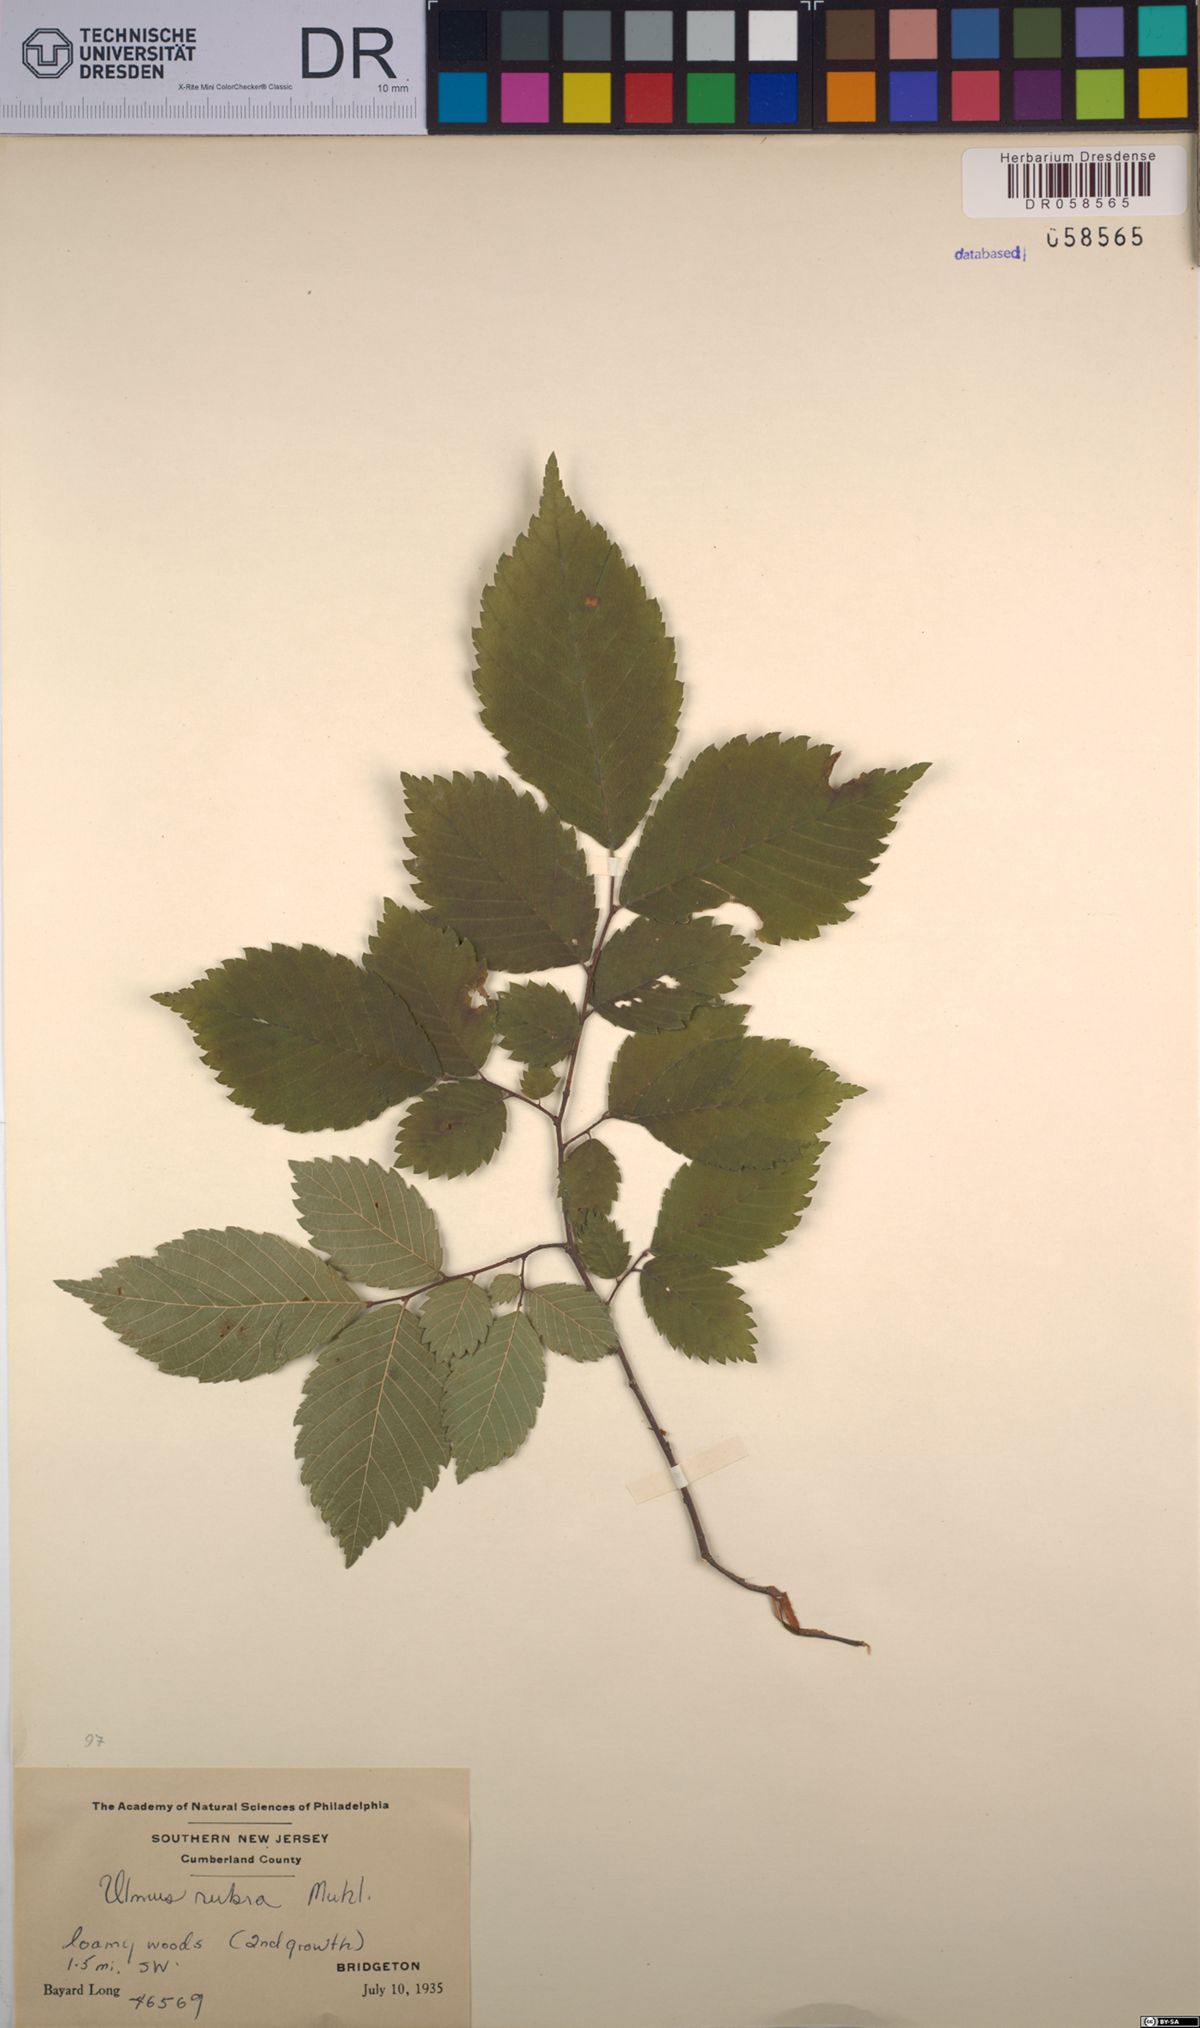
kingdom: Plantae
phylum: Tracheophyta
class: Magnoliopsida
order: Rosales
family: Ulmaceae
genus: Ulmus
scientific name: Ulmus rubra
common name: Slippery elm
